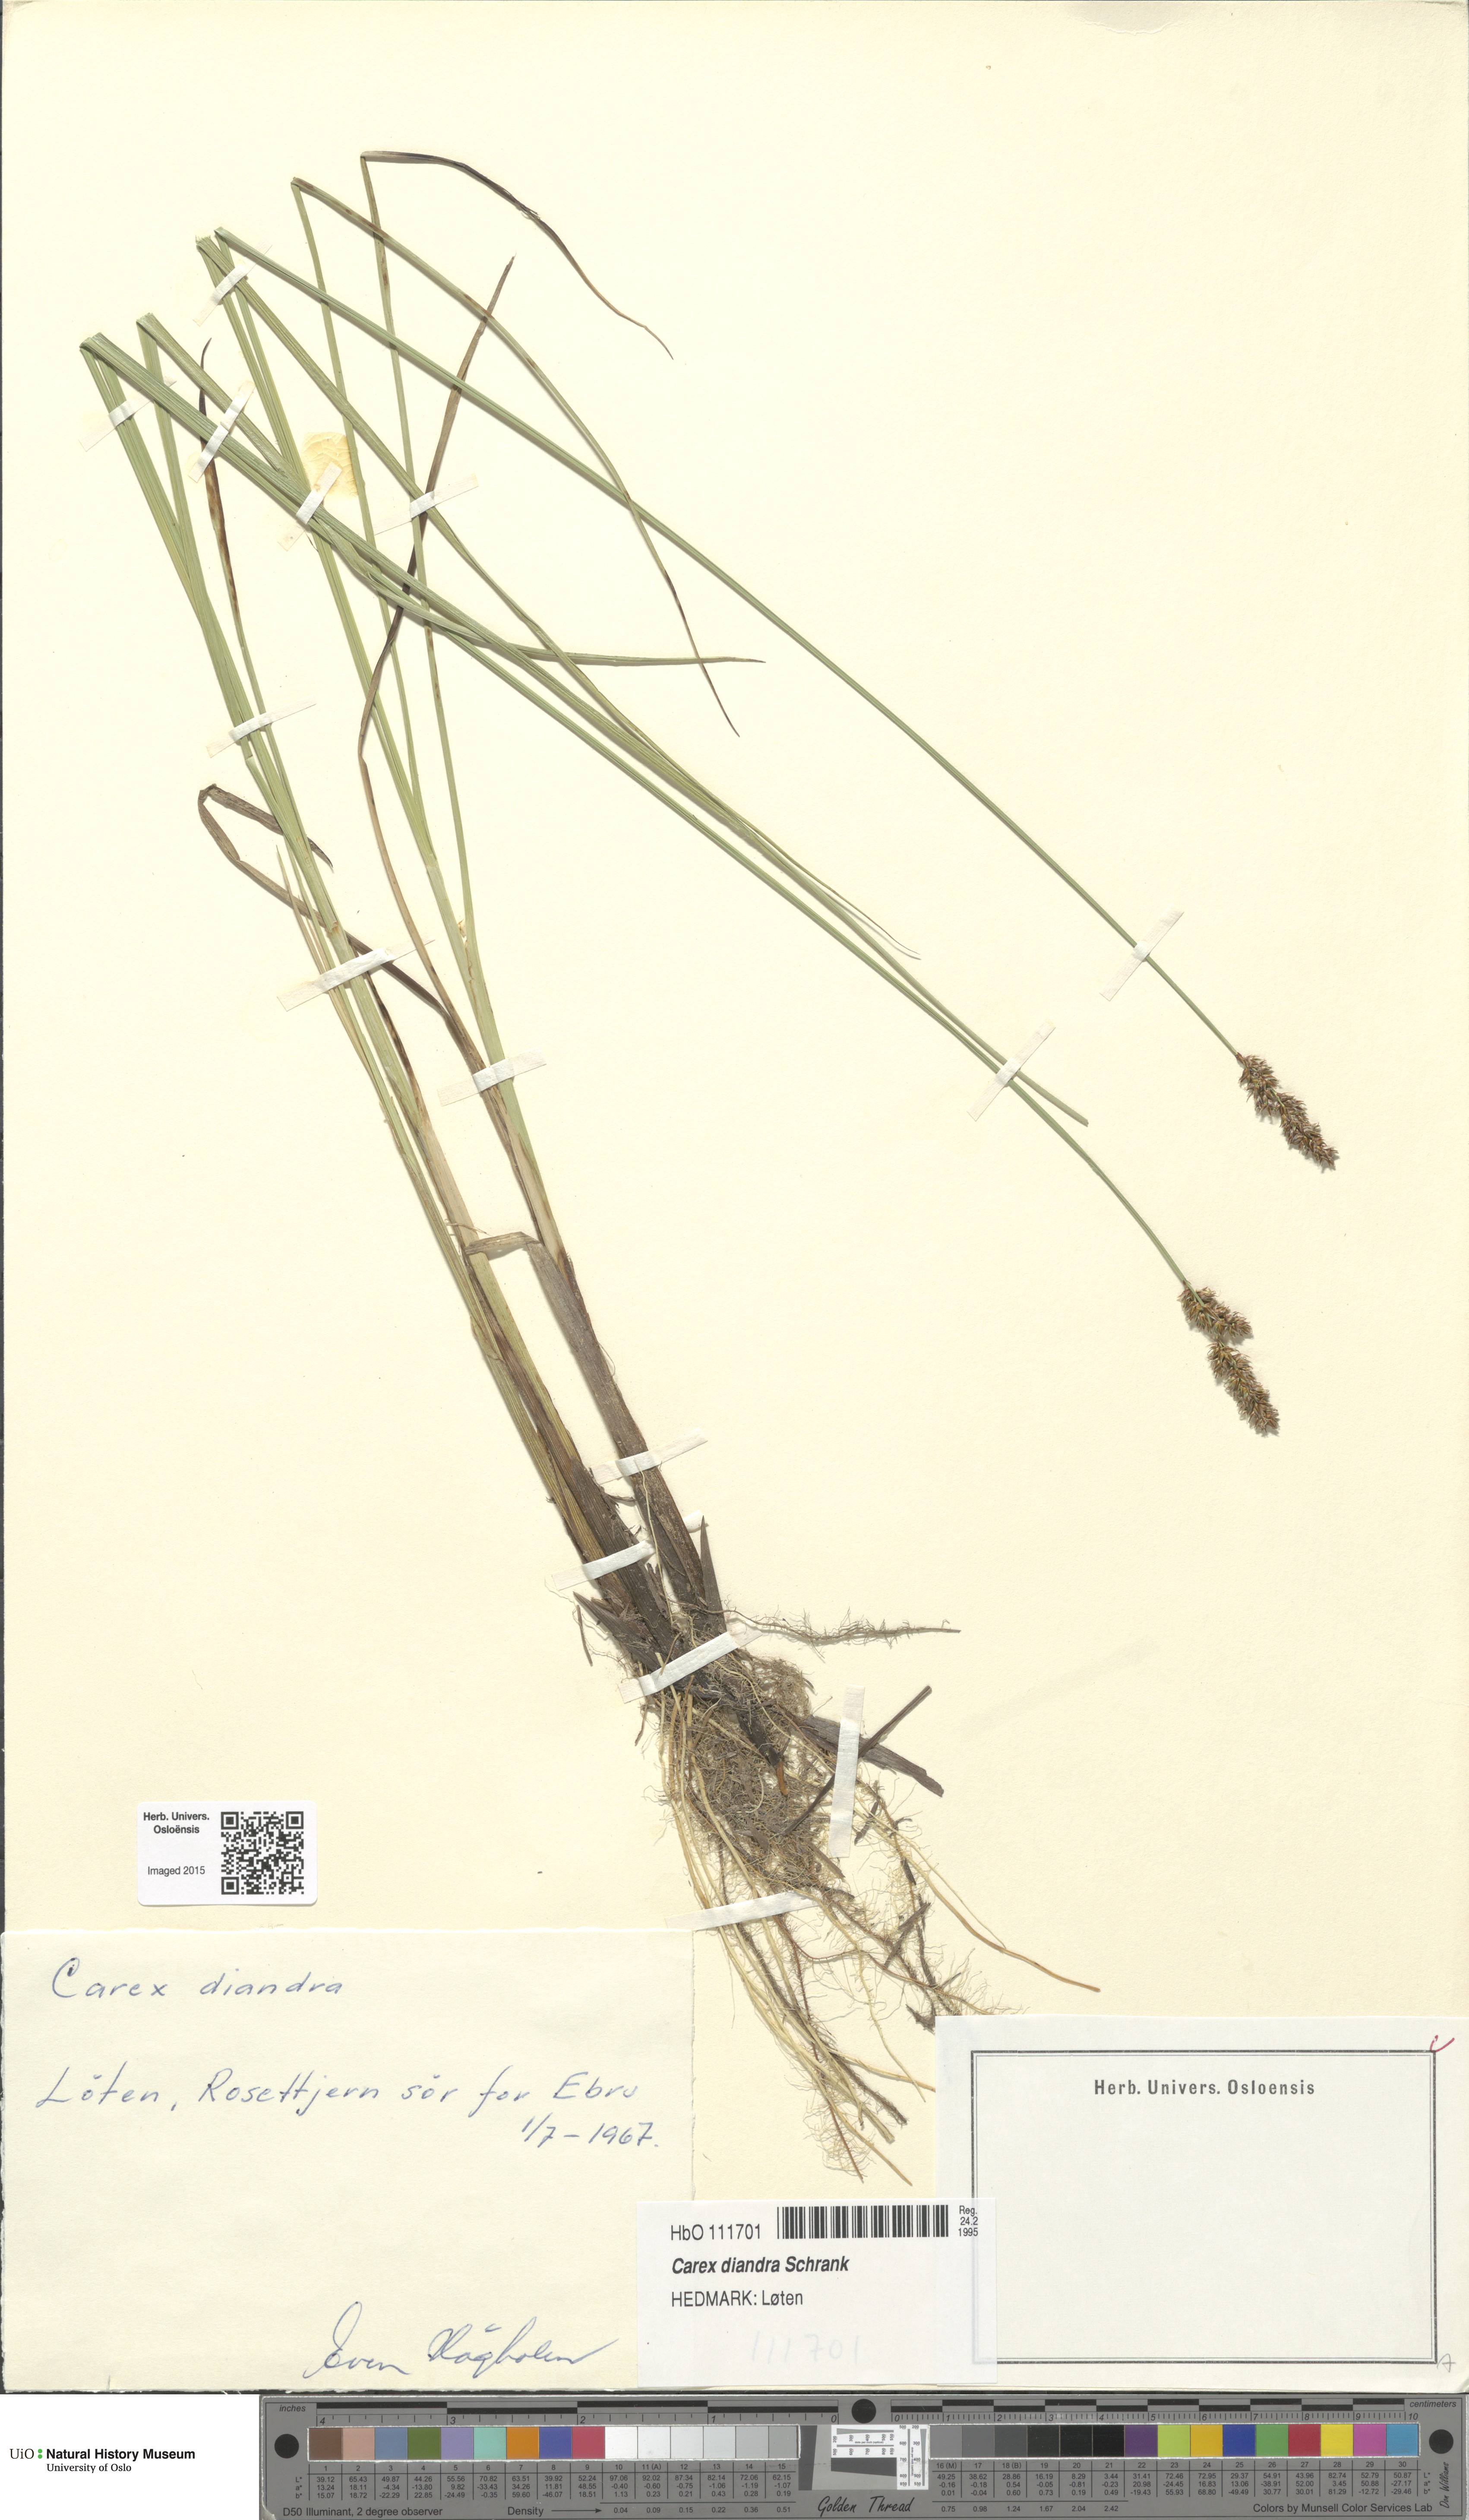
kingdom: Plantae
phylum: Tracheophyta
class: Liliopsida
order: Poales
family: Cyperaceae
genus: Carex
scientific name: Carex diandra
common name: Lesser tussock-sedge
